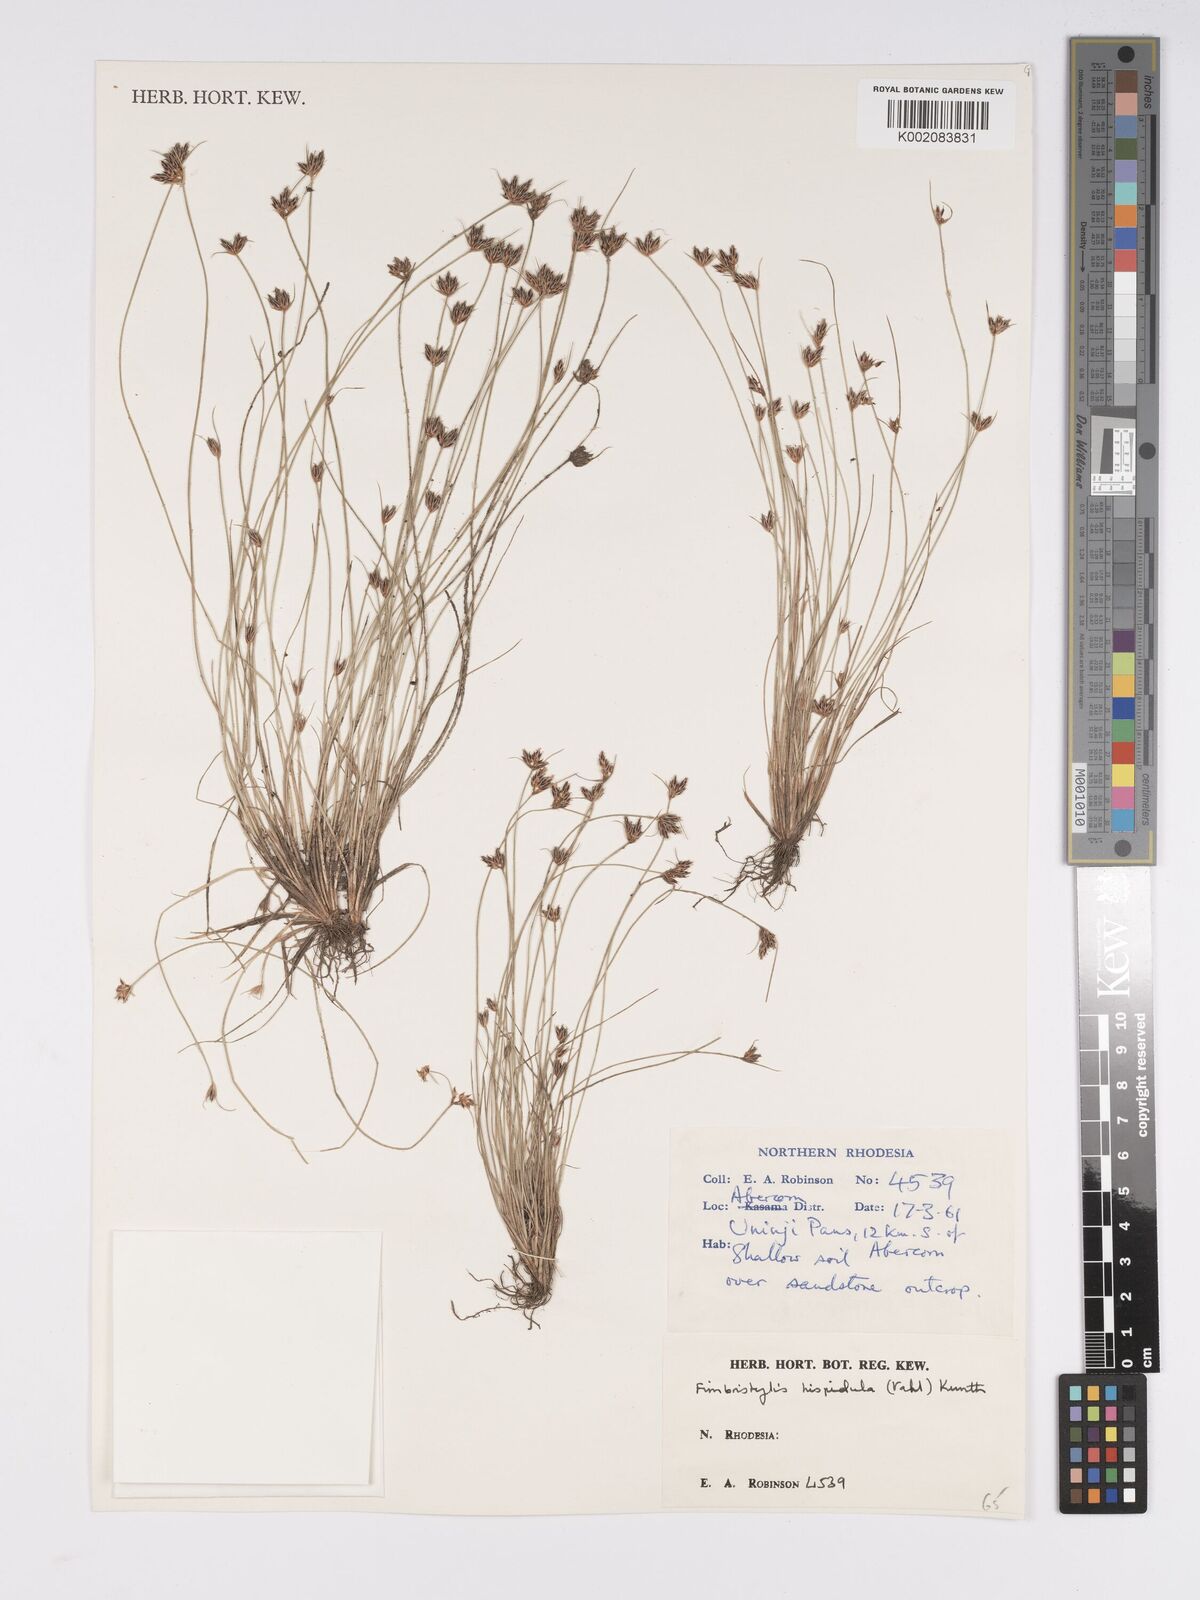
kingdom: Plantae
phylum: Tracheophyta
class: Liliopsida
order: Poales
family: Cyperaceae
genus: Bulbostylis
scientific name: Bulbostylis hispidula
